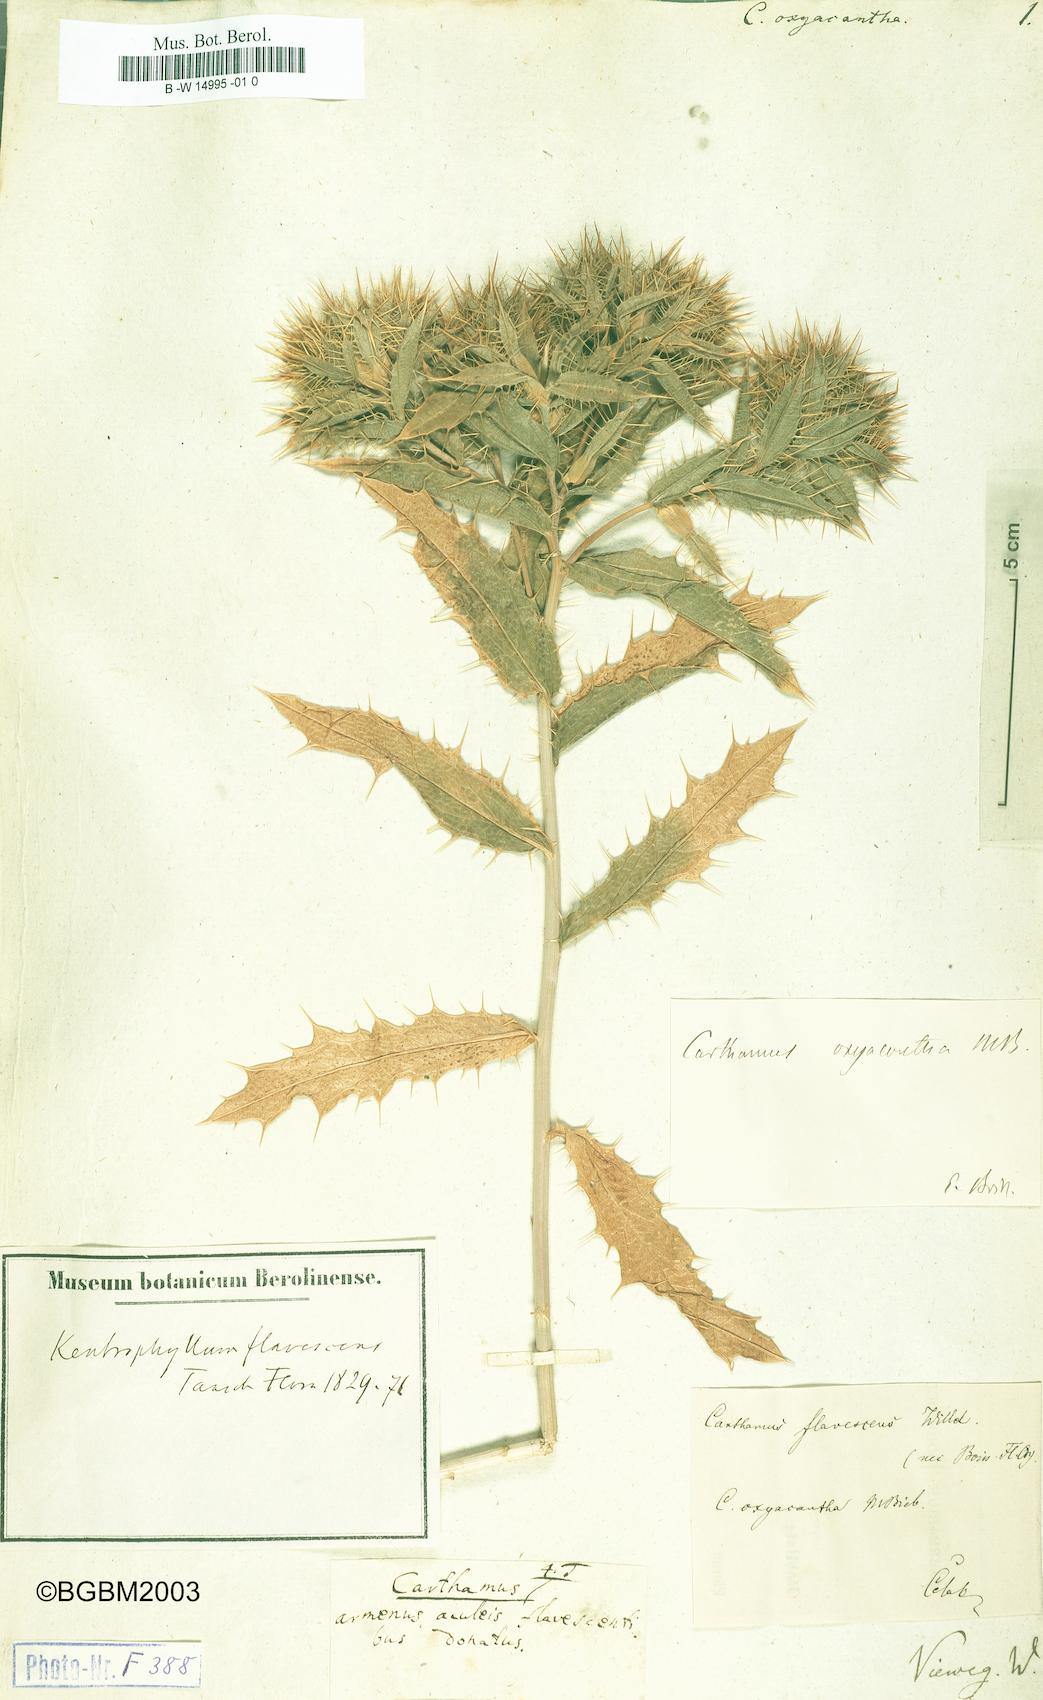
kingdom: Plantae
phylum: Tracheophyta
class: Magnoliopsida
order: Asterales
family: Asteraceae
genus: Carthamus
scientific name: Carthamus oxyacanthus
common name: Wild safflower
